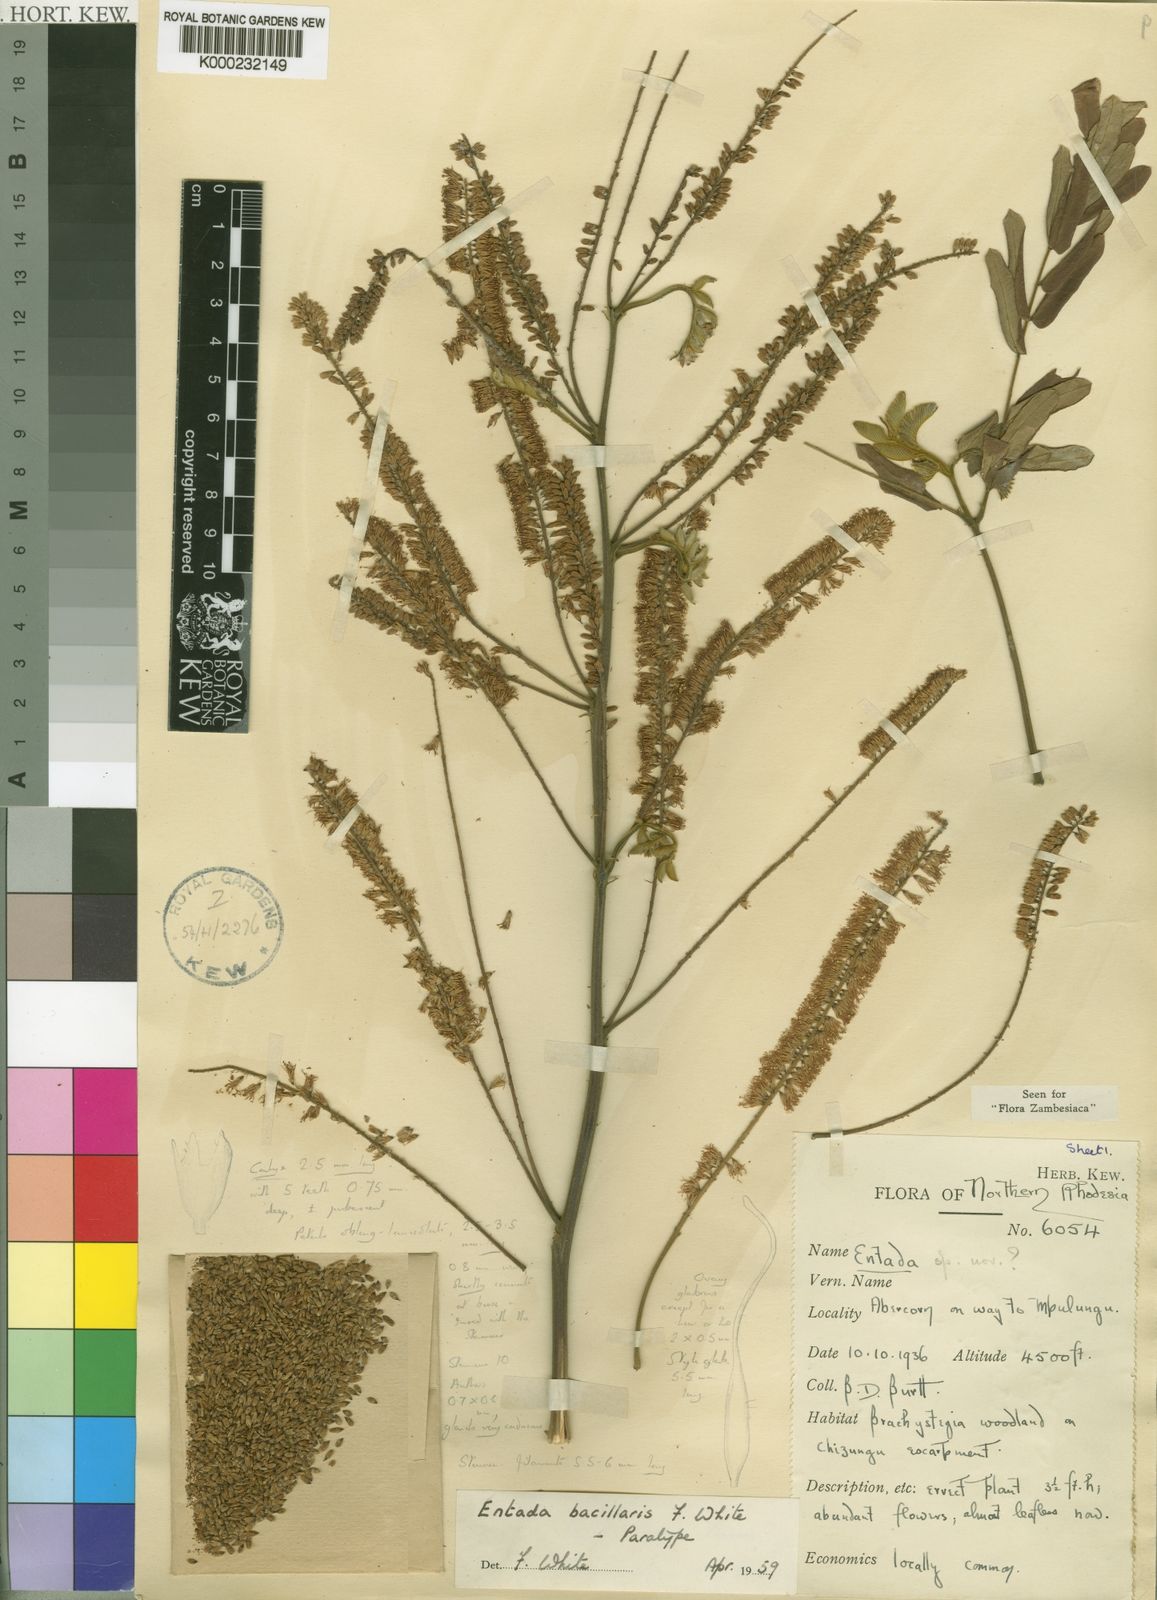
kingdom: Plantae
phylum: Tracheophyta
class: Magnoliopsida
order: Fabales
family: Fabaceae
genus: Entada
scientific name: Entada bacillaris
